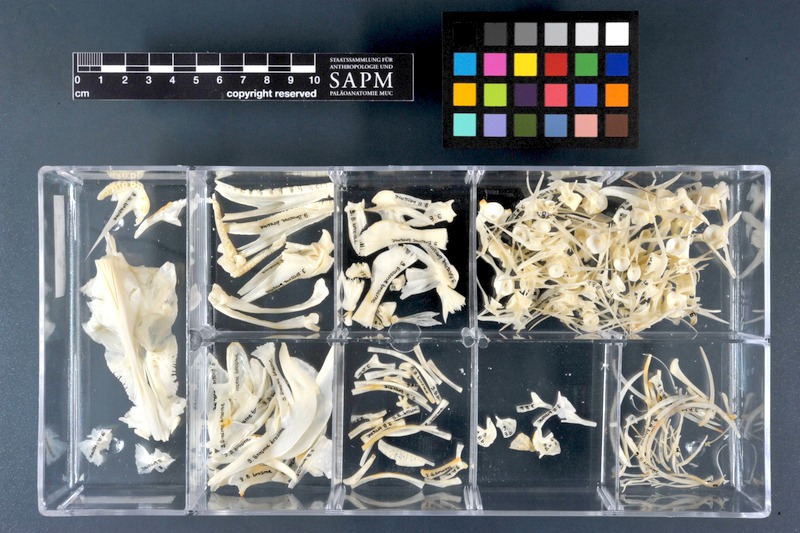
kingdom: Animalia
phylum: Chordata
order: Gadiformes
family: Lotidae
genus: Brosme
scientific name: Brosme brosme
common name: Cusk
